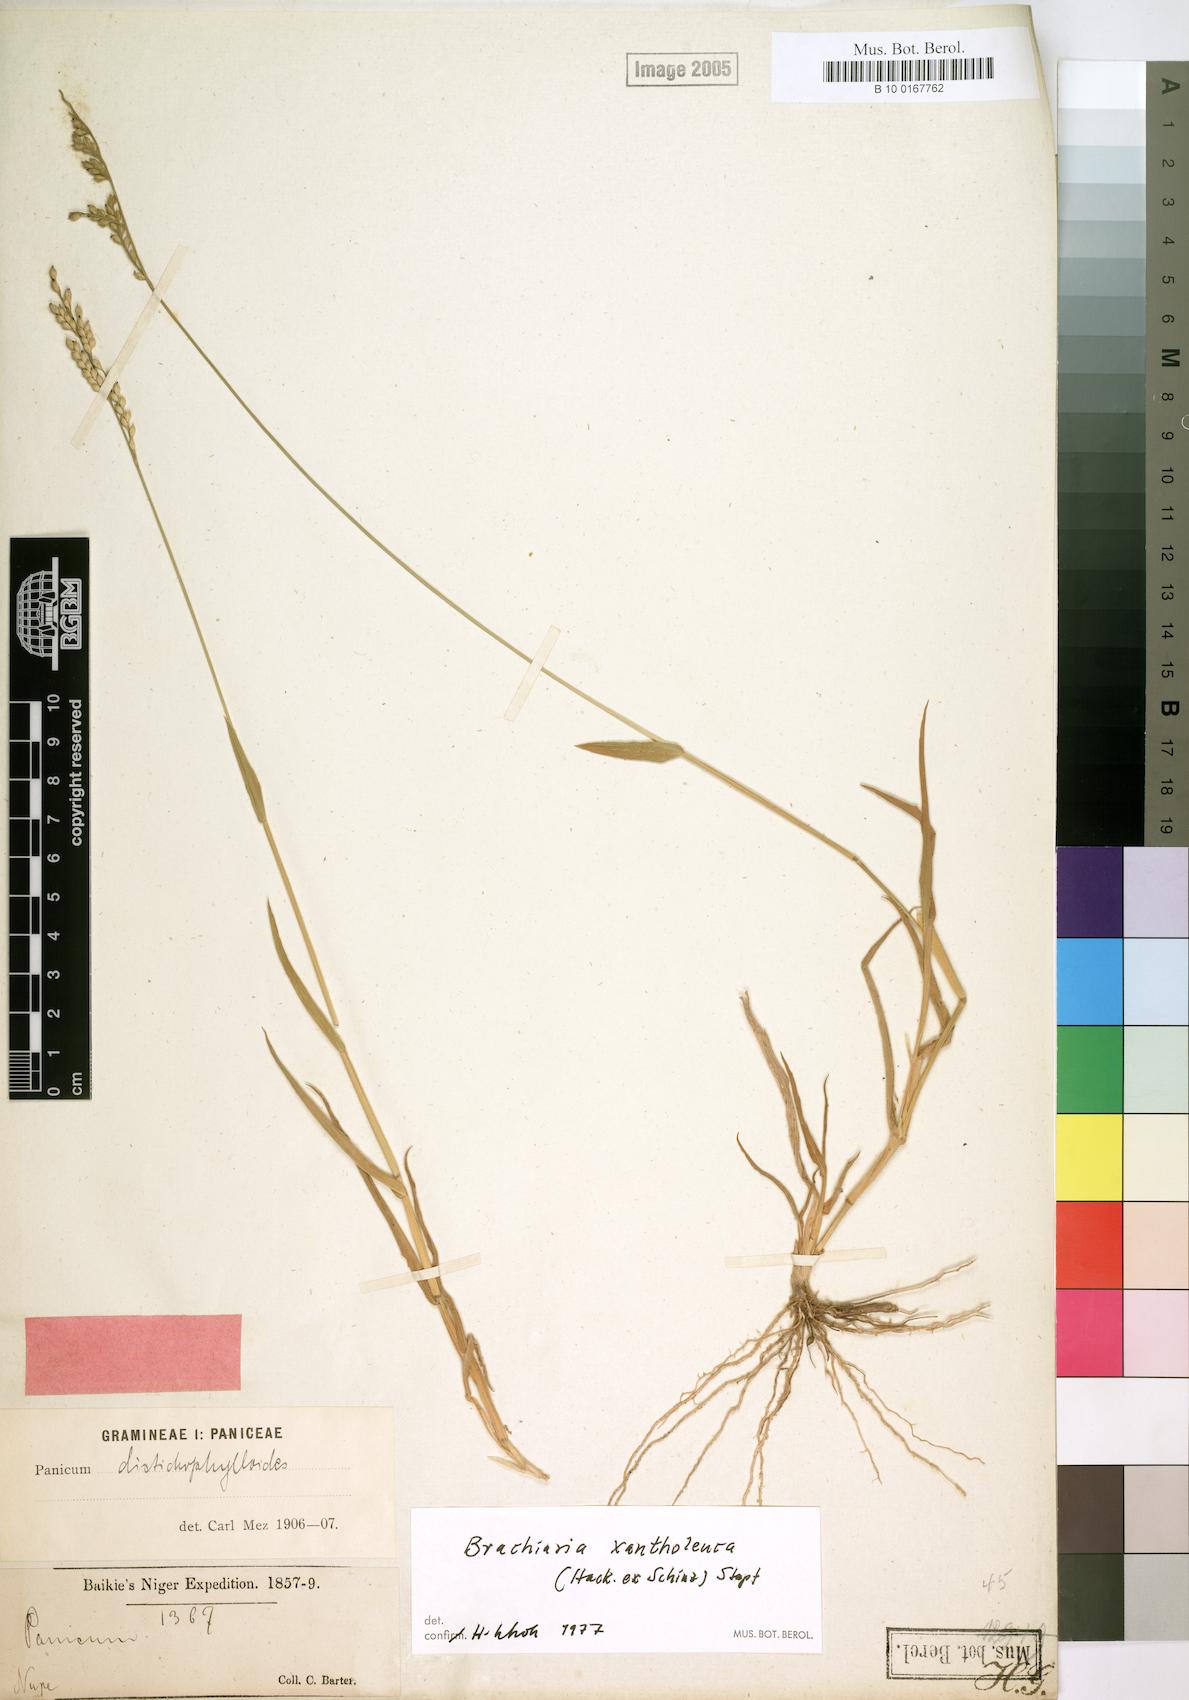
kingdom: Plantae
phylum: Tracheophyta
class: Liliopsida
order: Poales
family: Poaceae
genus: Urochloa
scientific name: Urochloa xantholeuca
